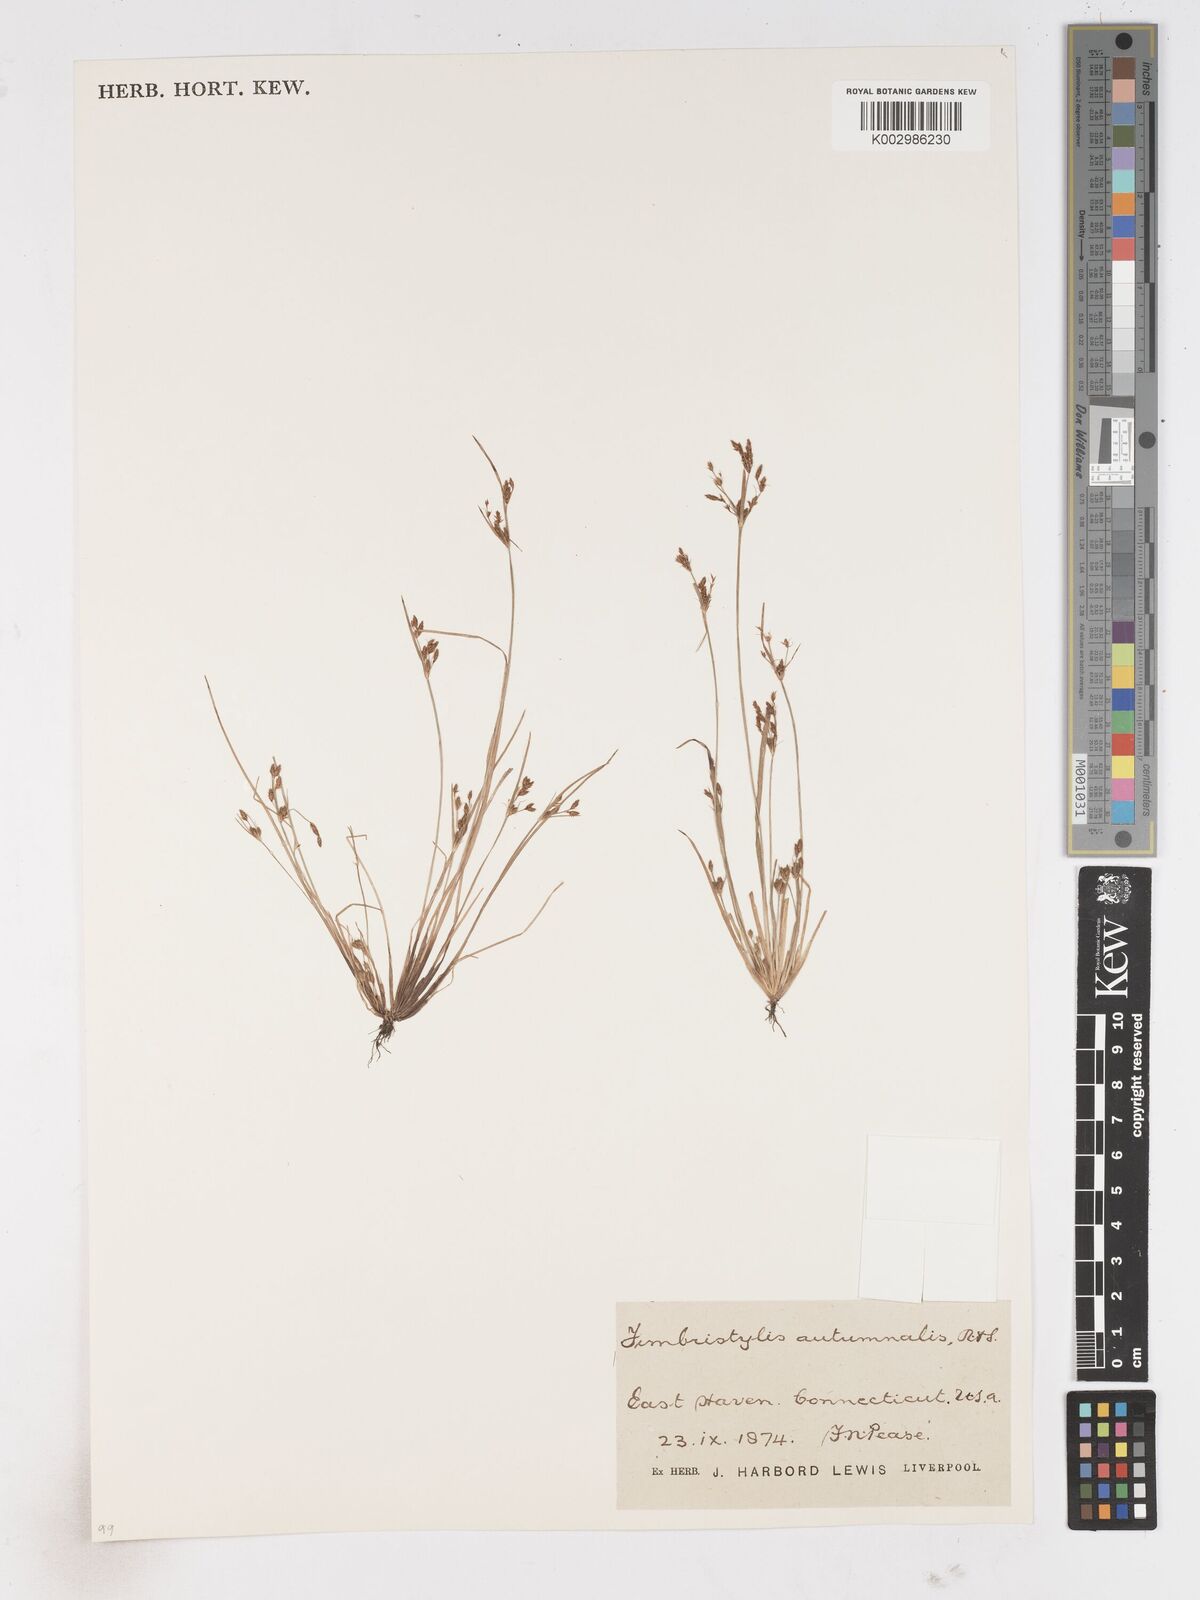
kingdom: Plantae
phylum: Tracheophyta
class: Liliopsida
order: Poales
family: Cyperaceae
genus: Fimbristylis
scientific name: Fimbristylis autumnalis
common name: Slender fimbristylis
